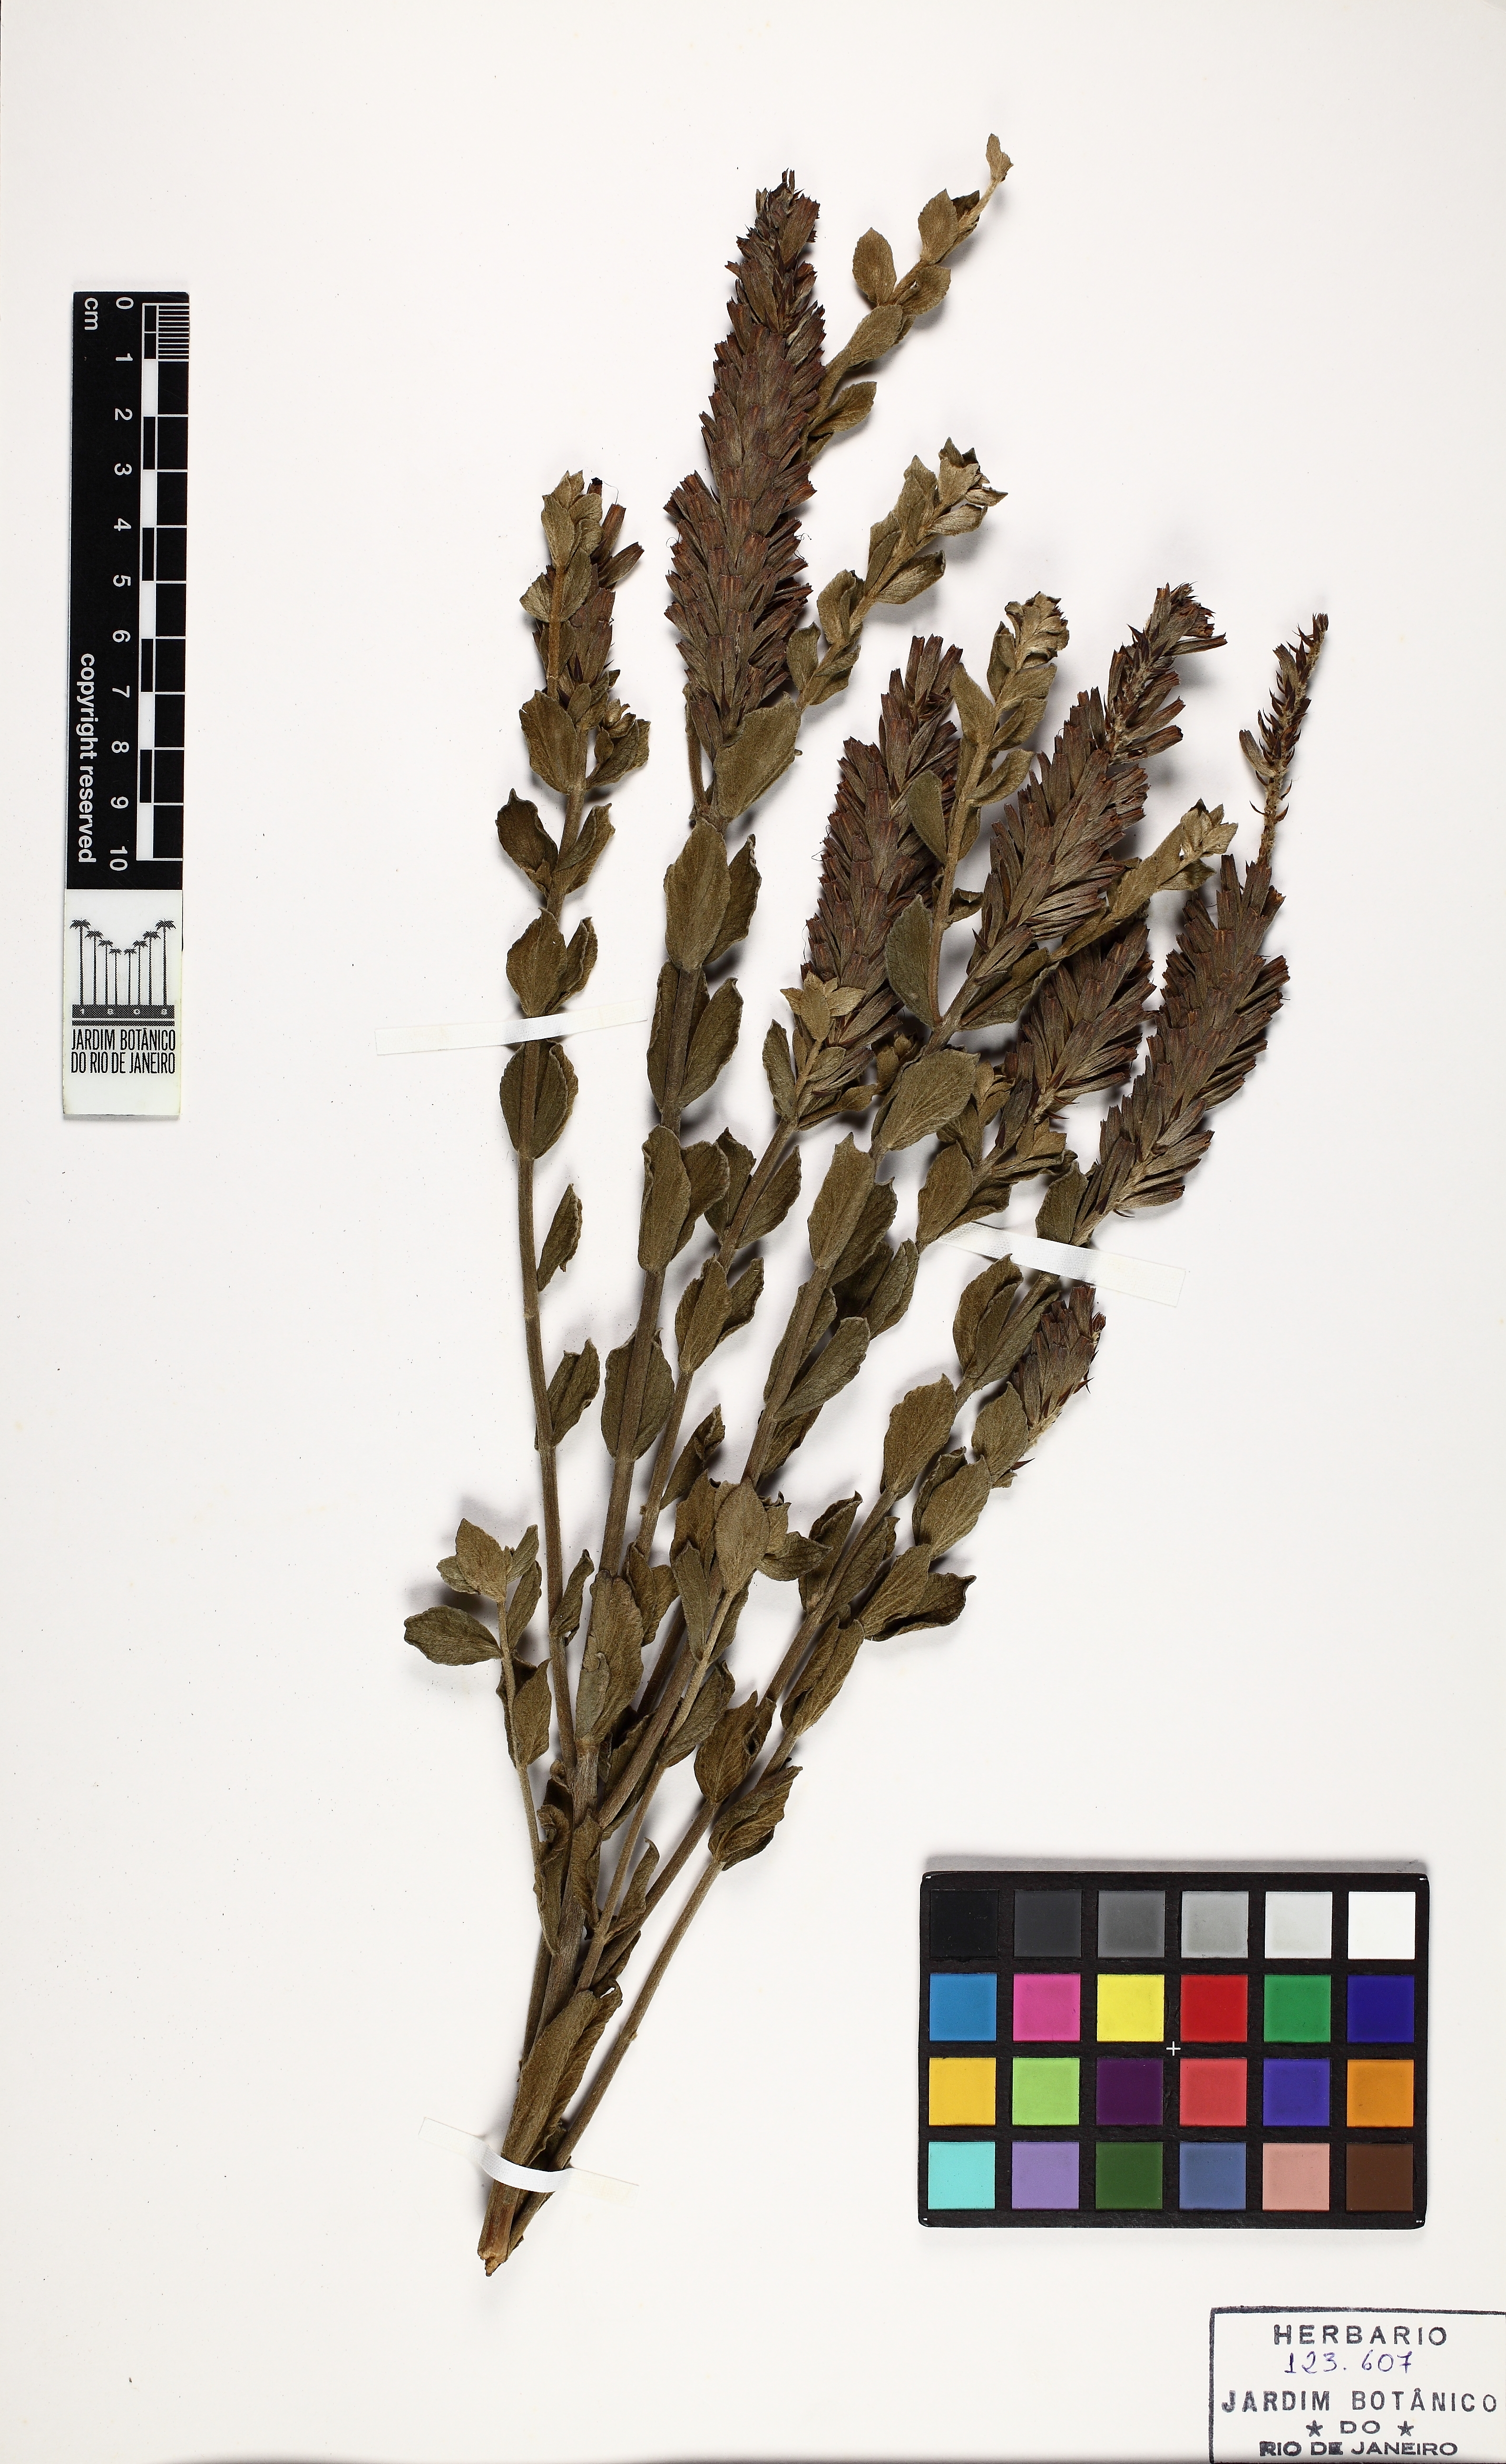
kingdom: Plantae
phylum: Tracheophyta
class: Magnoliopsida
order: Lamiales
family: Verbenaceae
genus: Stachytarpheta
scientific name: Stachytarpheta sericea
